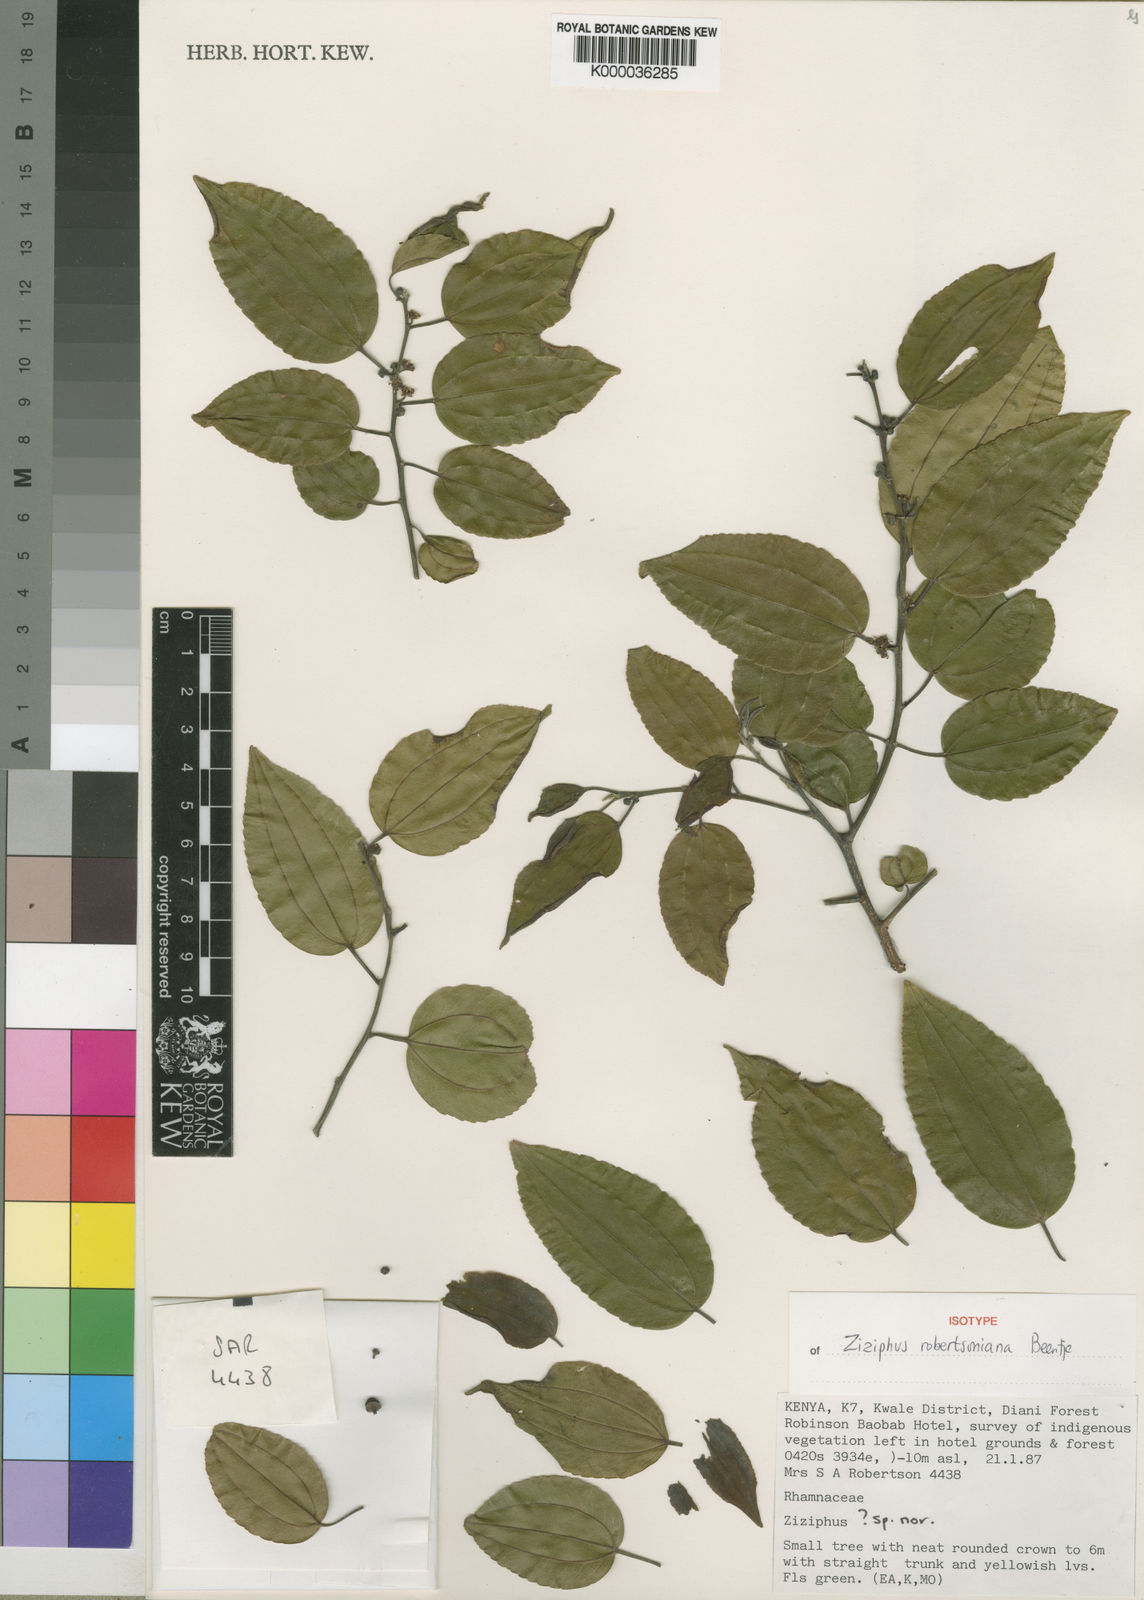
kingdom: Plantae
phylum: Tracheophyta
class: Magnoliopsida
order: Rosales
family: Rhamnaceae
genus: Ziziphus
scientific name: Ziziphus robertsoniana
